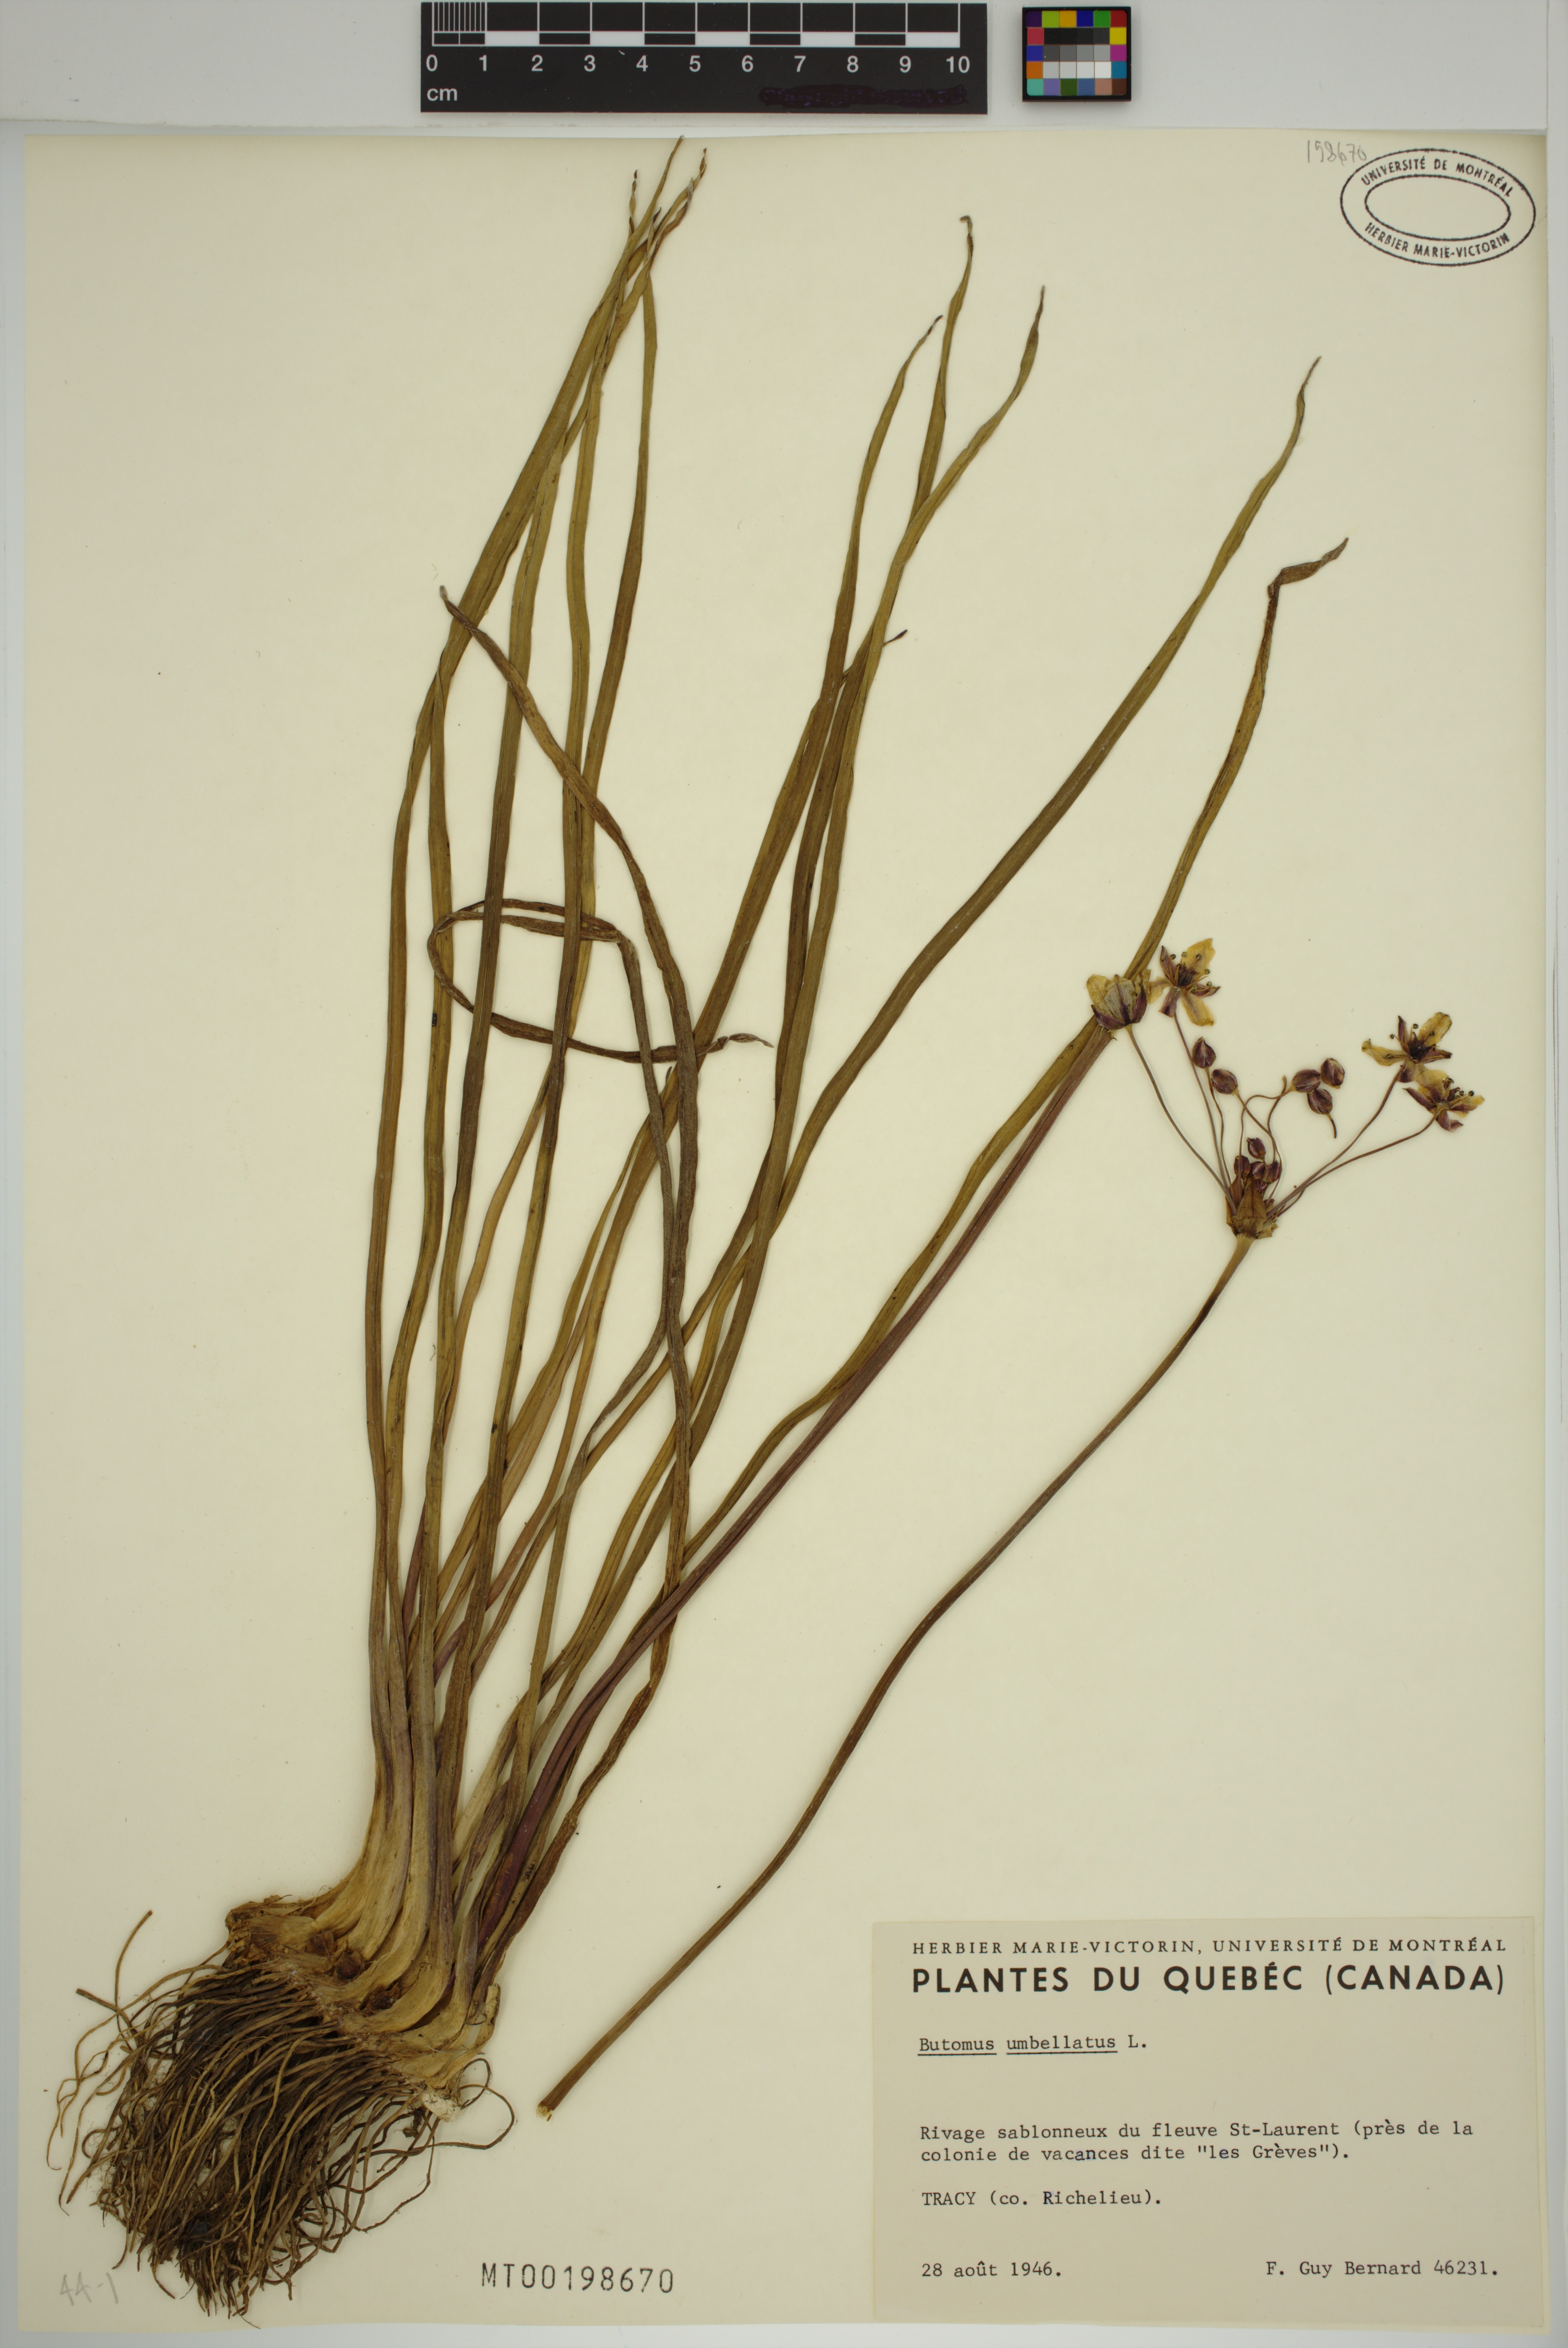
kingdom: Plantae
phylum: Tracheophyta
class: Liliopsida
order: Alismatales
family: Butomaceae
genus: Butomus
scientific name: Butomus umbellatus
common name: Flowering-rush
